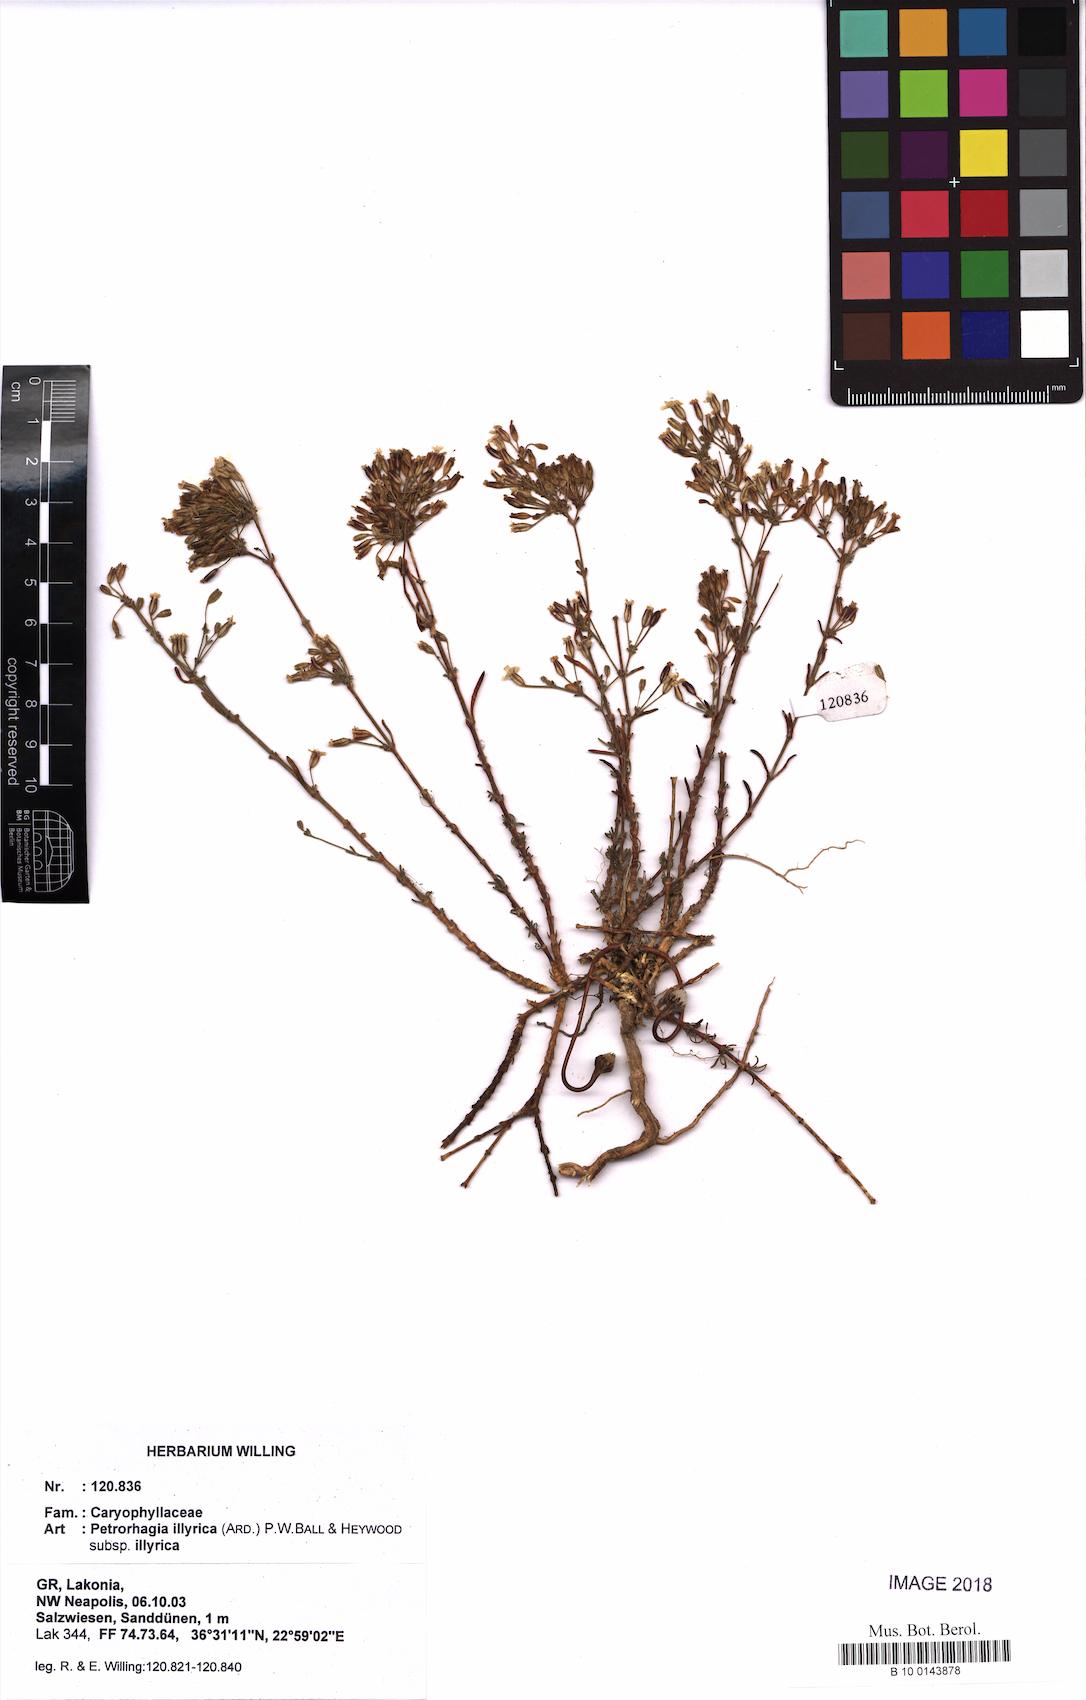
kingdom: Plantae
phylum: Tracheophyta
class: Magnoliopsida
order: Caryophyllales
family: Caryophyllaceae
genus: Dianthus
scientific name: Dianthus illyricus
